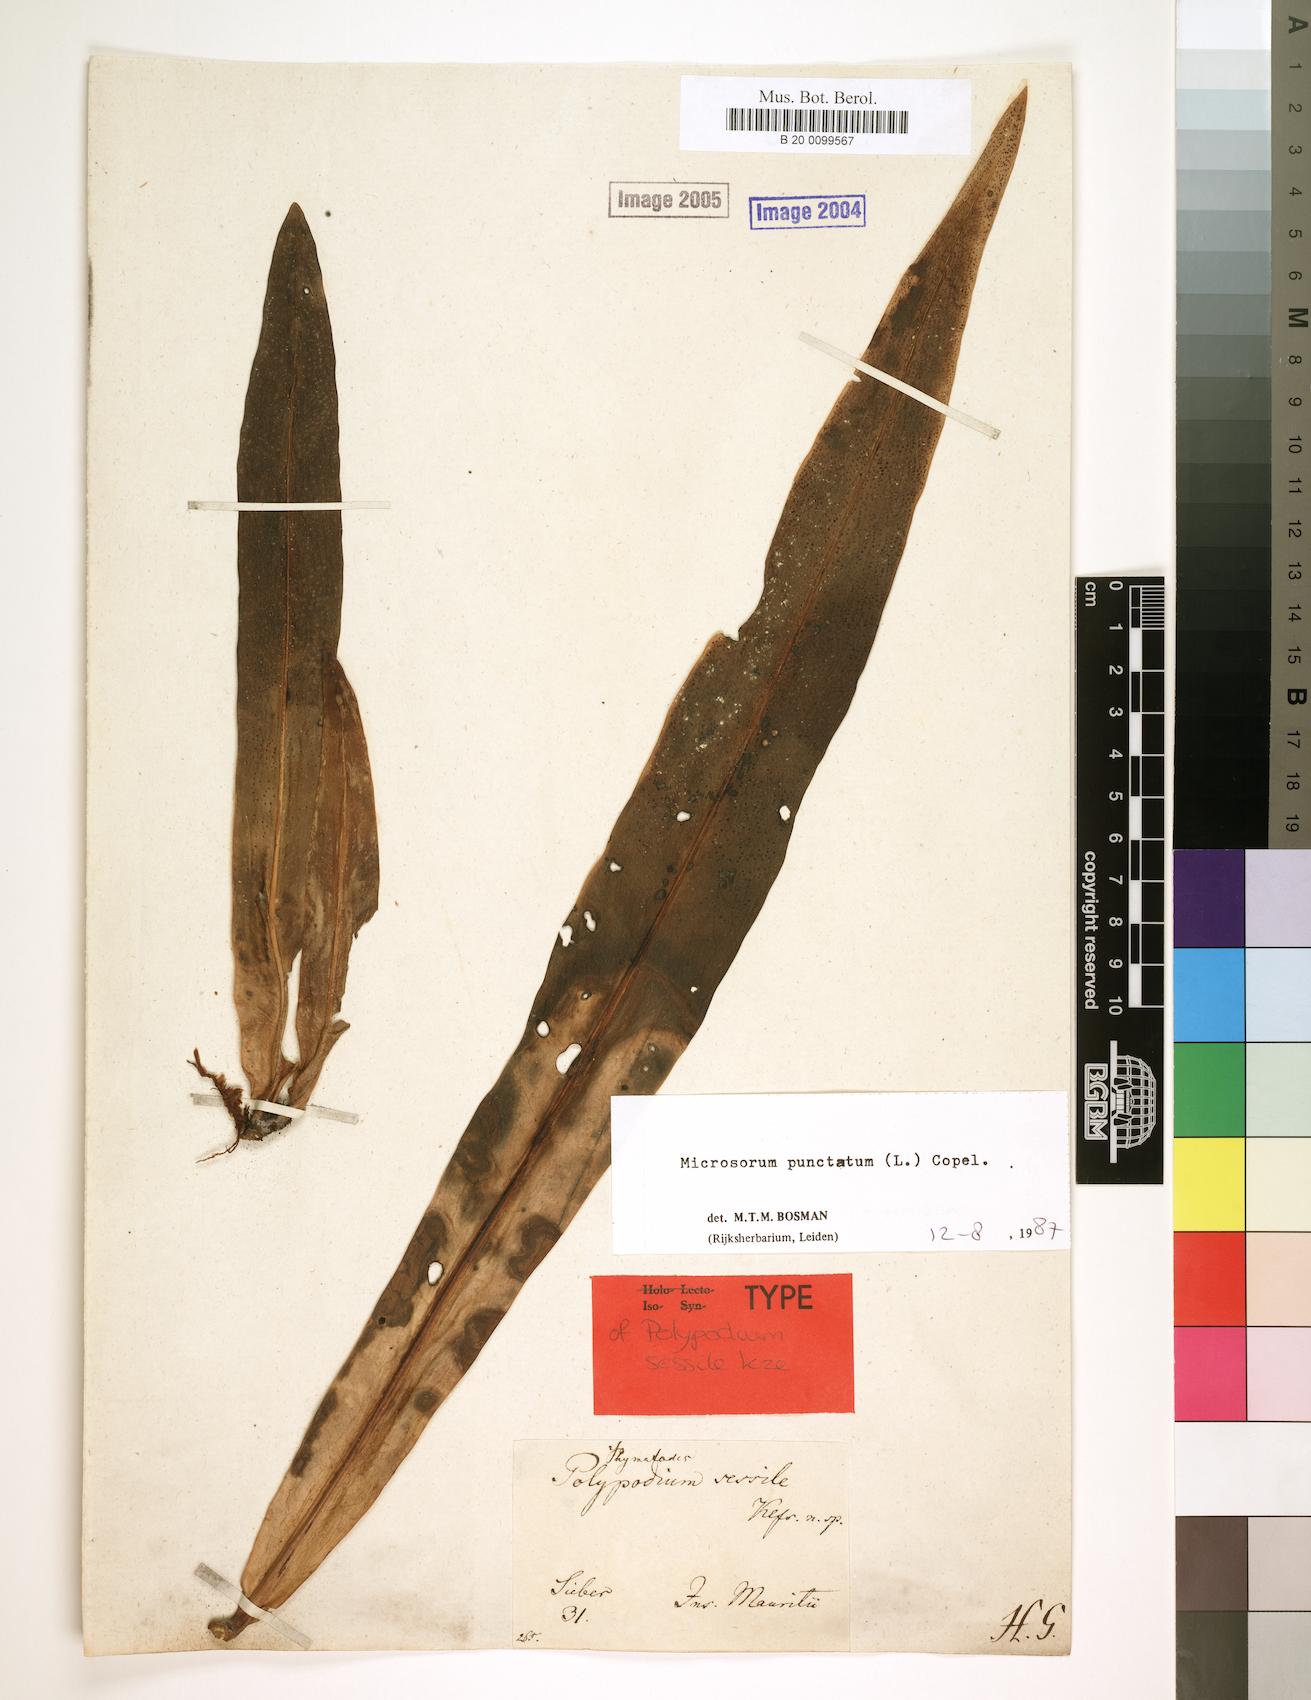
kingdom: Plantae
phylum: Tracheophyta
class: Polypodiopsida
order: Polypodiales
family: Polypodiaceae
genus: Microsorum
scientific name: Microsorum punctatum
